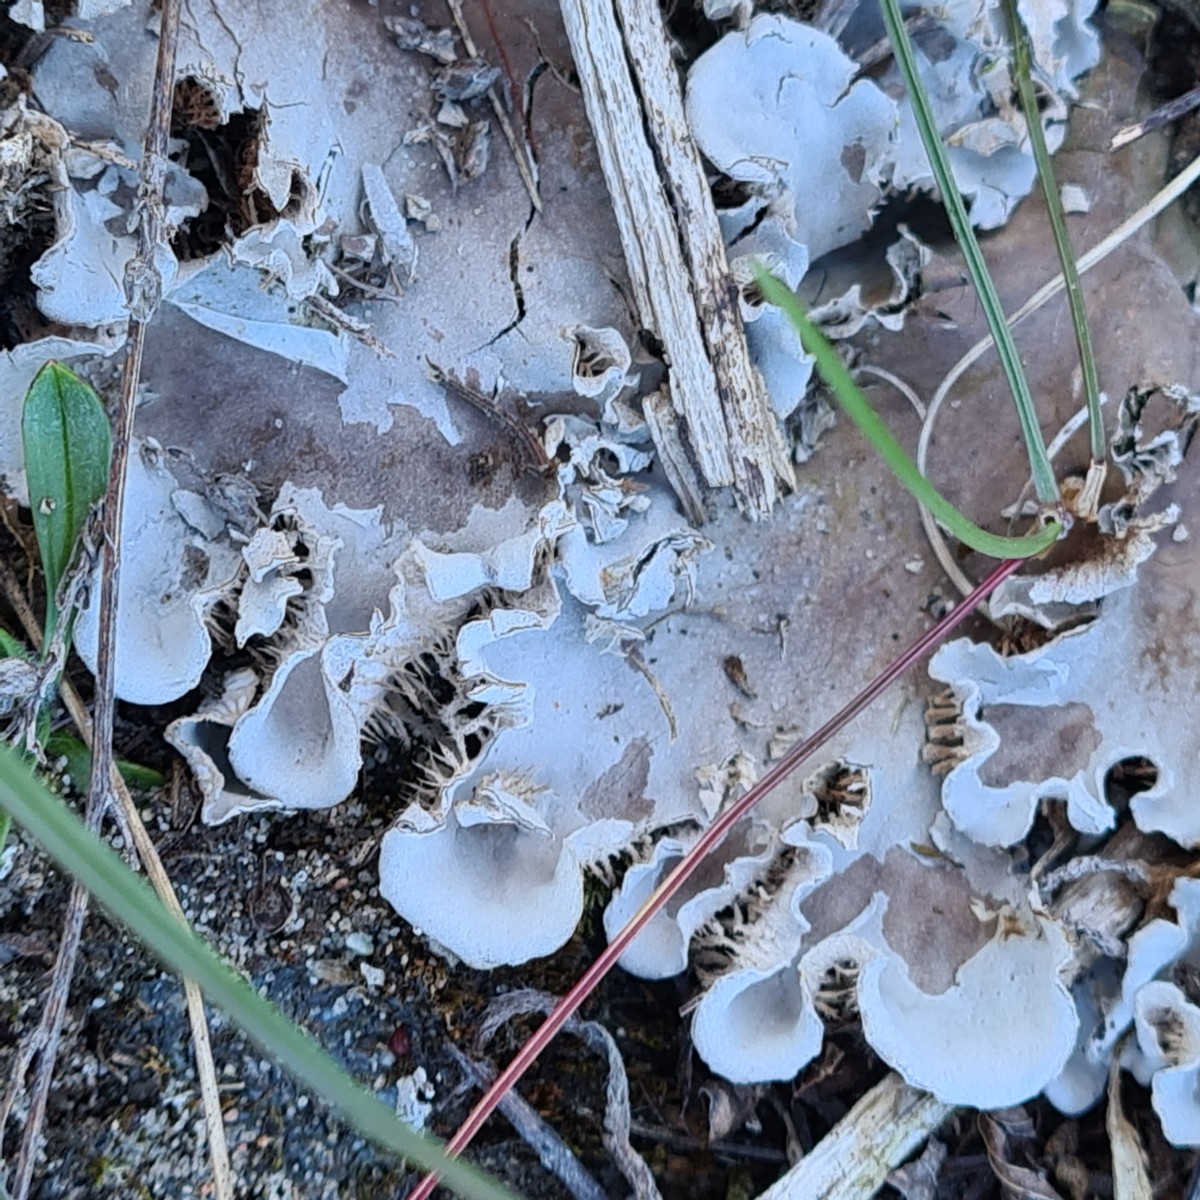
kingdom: Fungi
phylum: Ascomycota
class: Lecanoromycetes
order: Peltigerales
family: Peltigeraceae
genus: Peltigera
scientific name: Peltigera canina
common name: hunde-skjoldlav
